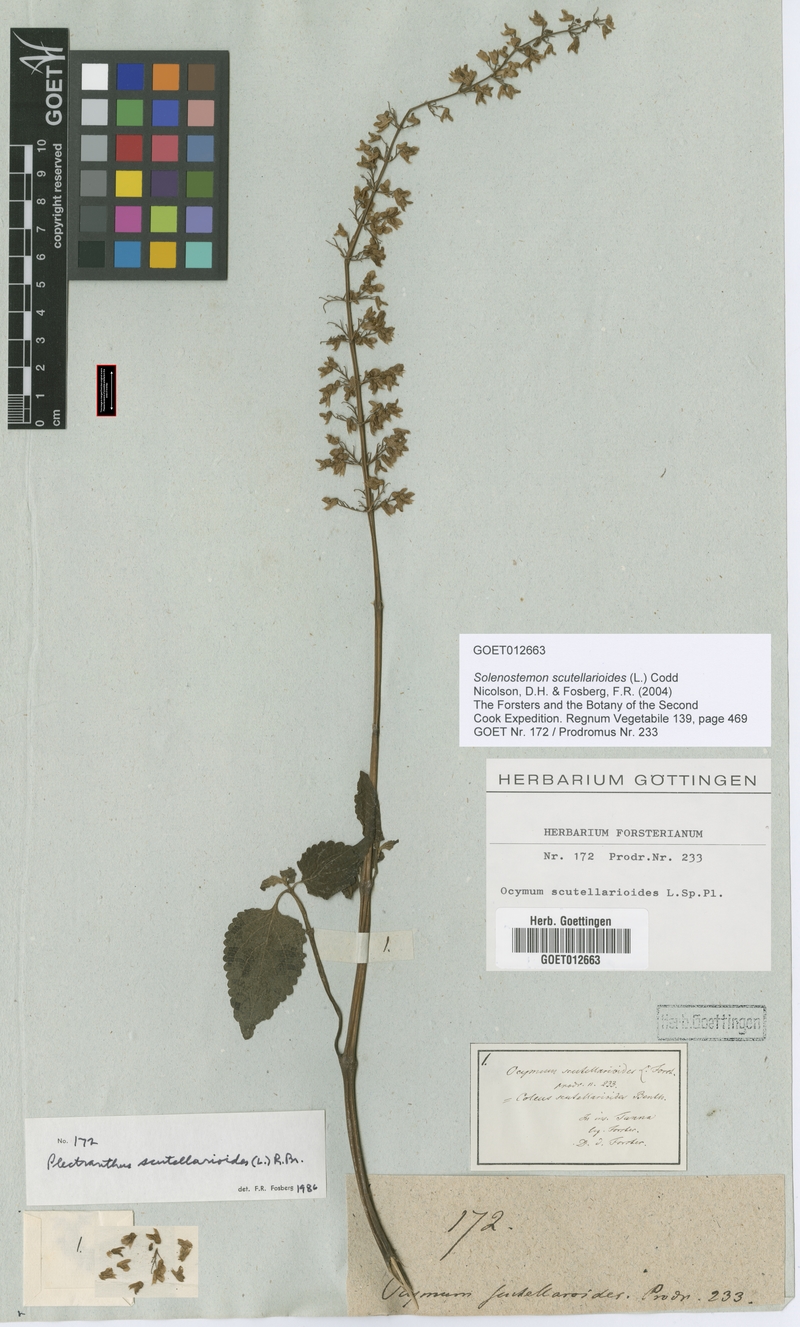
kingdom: Plantae
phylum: Tracheophyta
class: Magnoliopsida
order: Lamiales
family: Lamiaceae
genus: Coleus
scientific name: Coleus scutellarioides
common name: Coleus
